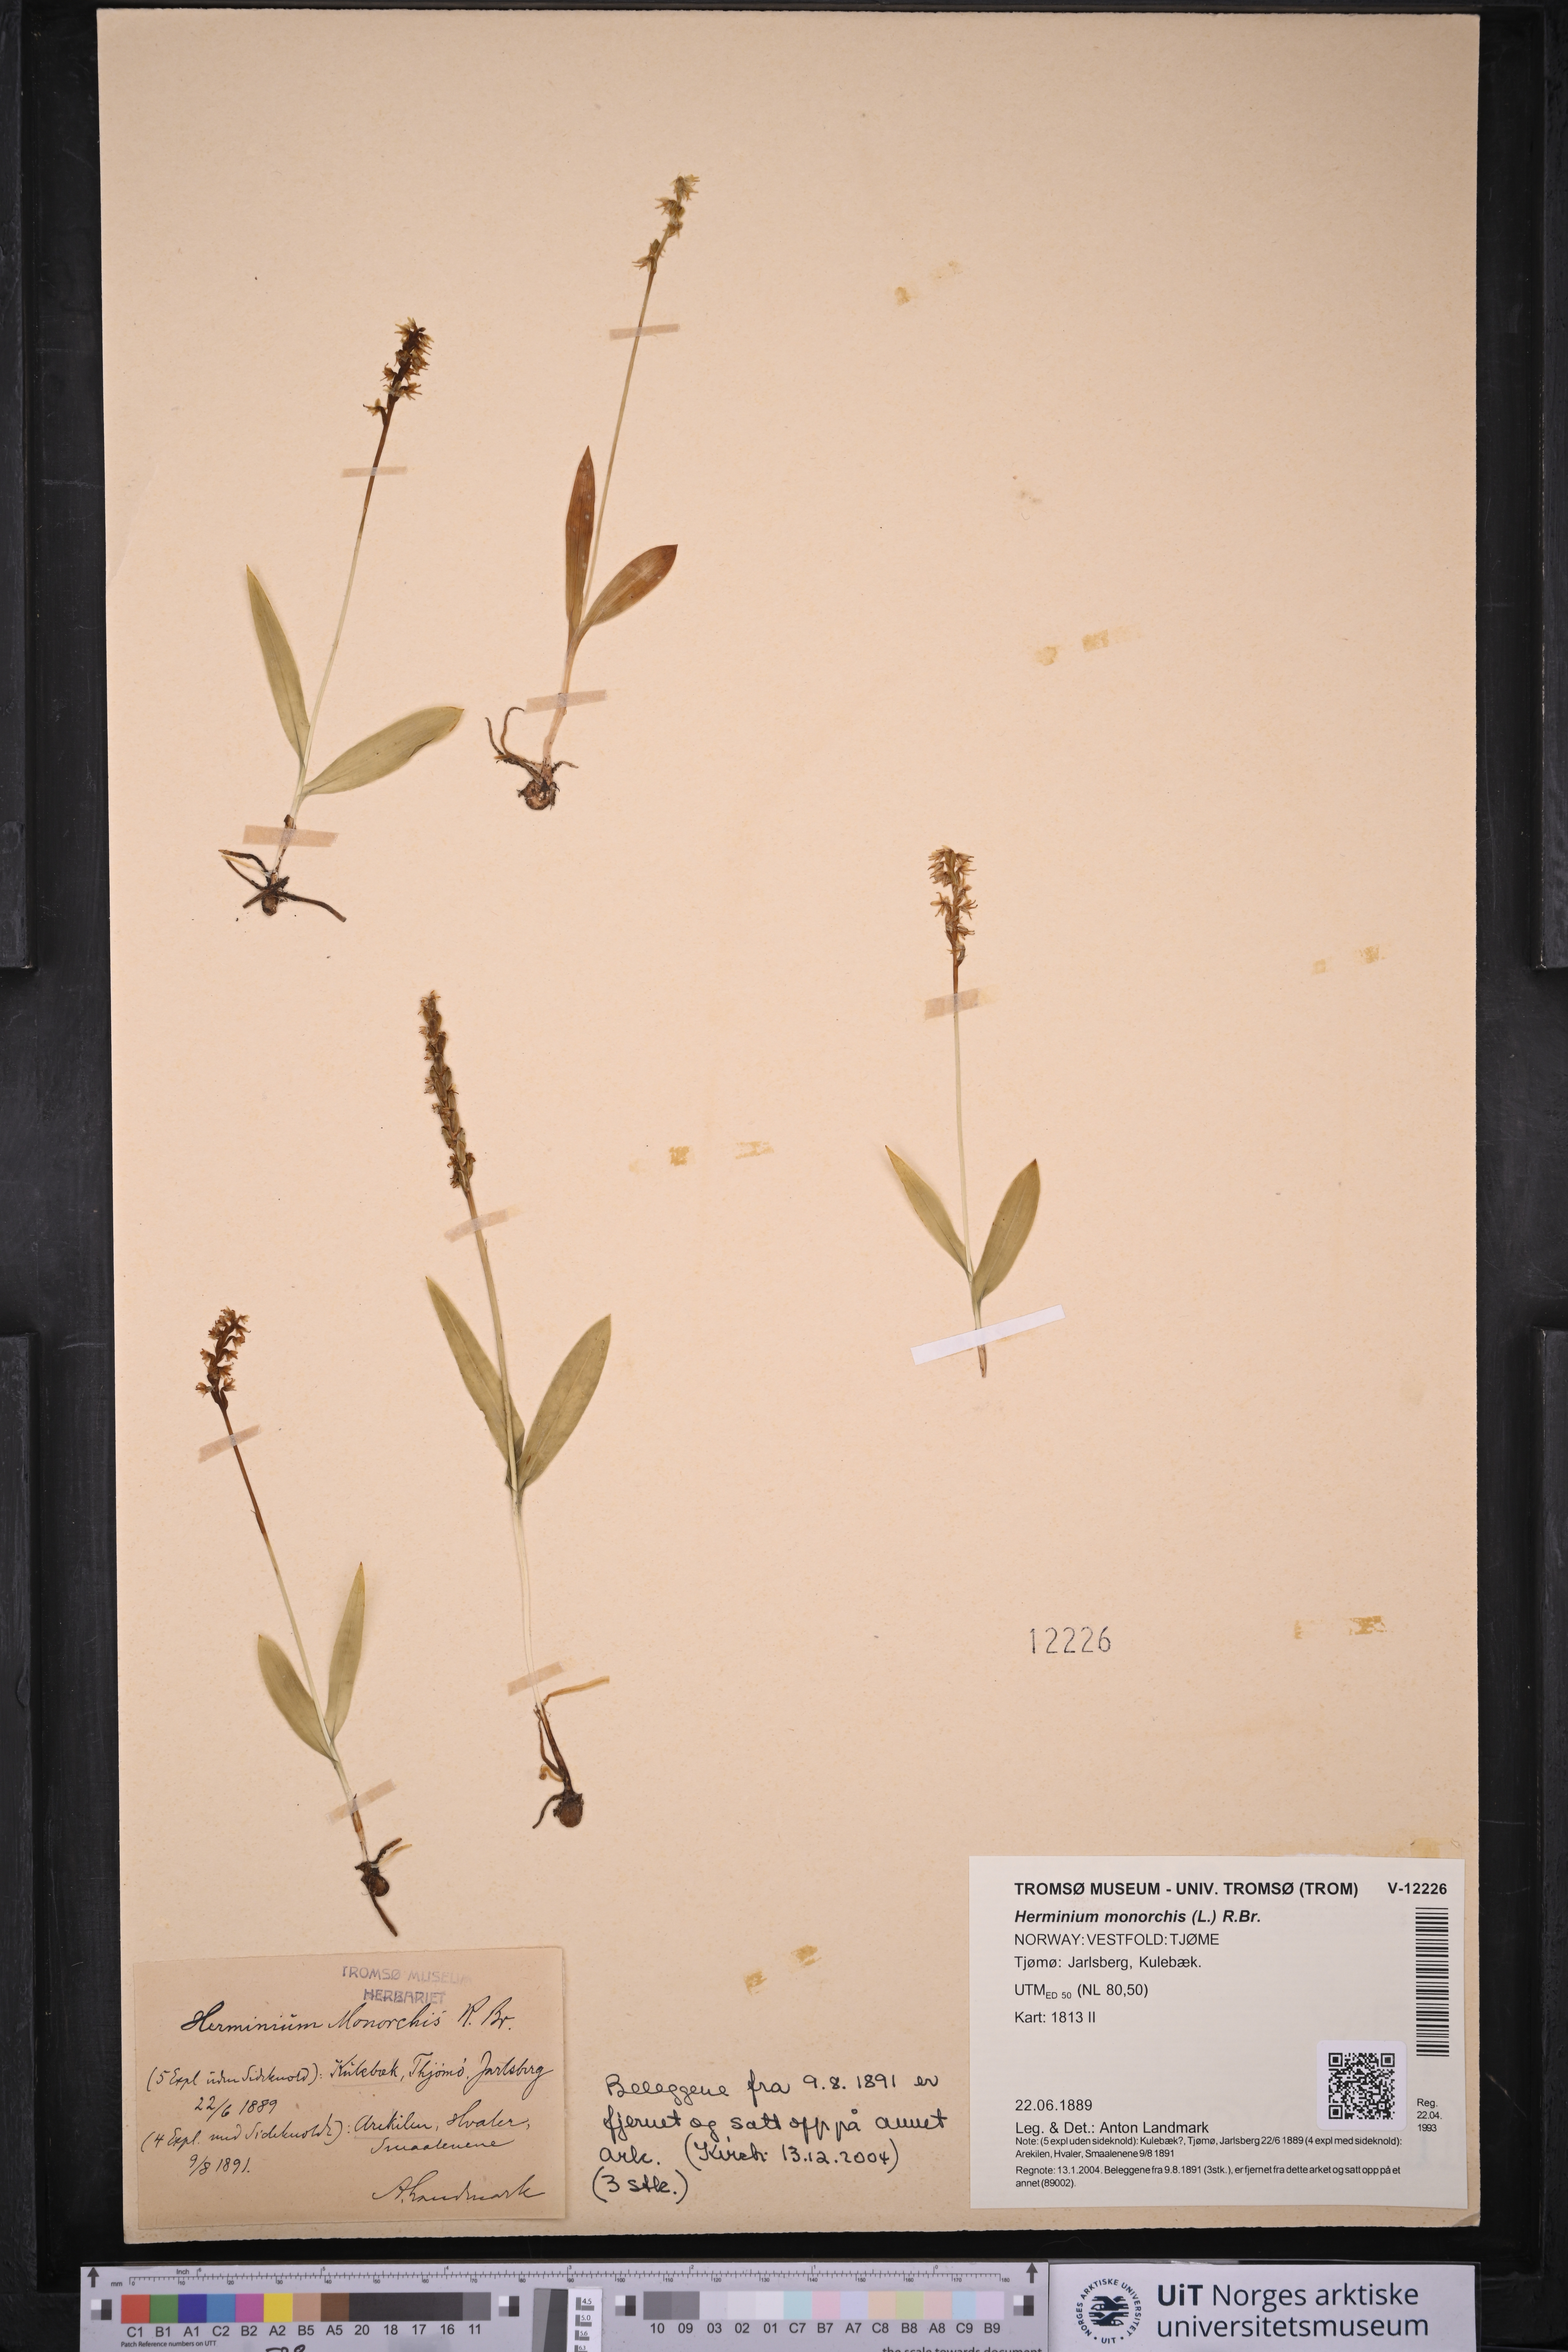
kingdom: Plantae
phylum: Tracheophyta
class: Liliopsida
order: Asparagales
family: Orchidaceae
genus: Herminium
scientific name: Herminium monorchis
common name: Musk orchid
